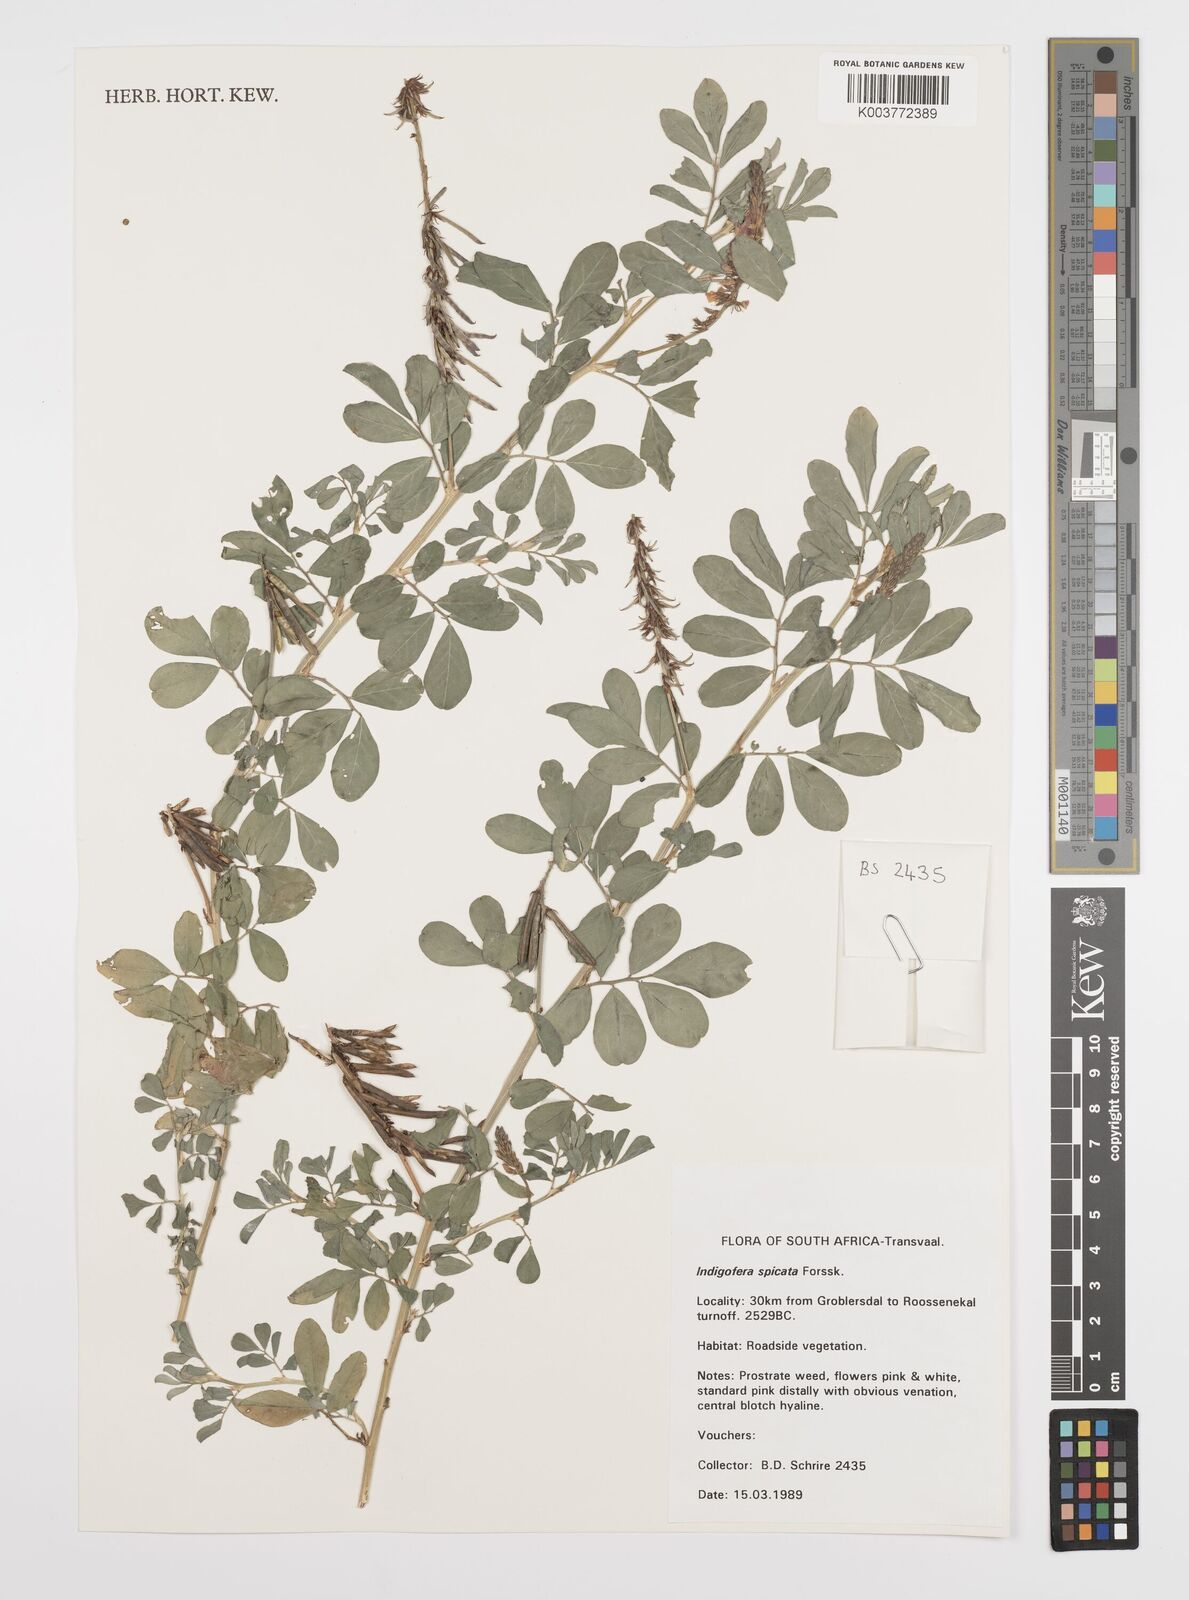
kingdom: Plantae
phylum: Tracheophyta
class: Magnoliopsida
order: Fabales
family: Fabaceae
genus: Indigofera
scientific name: Indigofera spicata
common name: Creeping indigo
